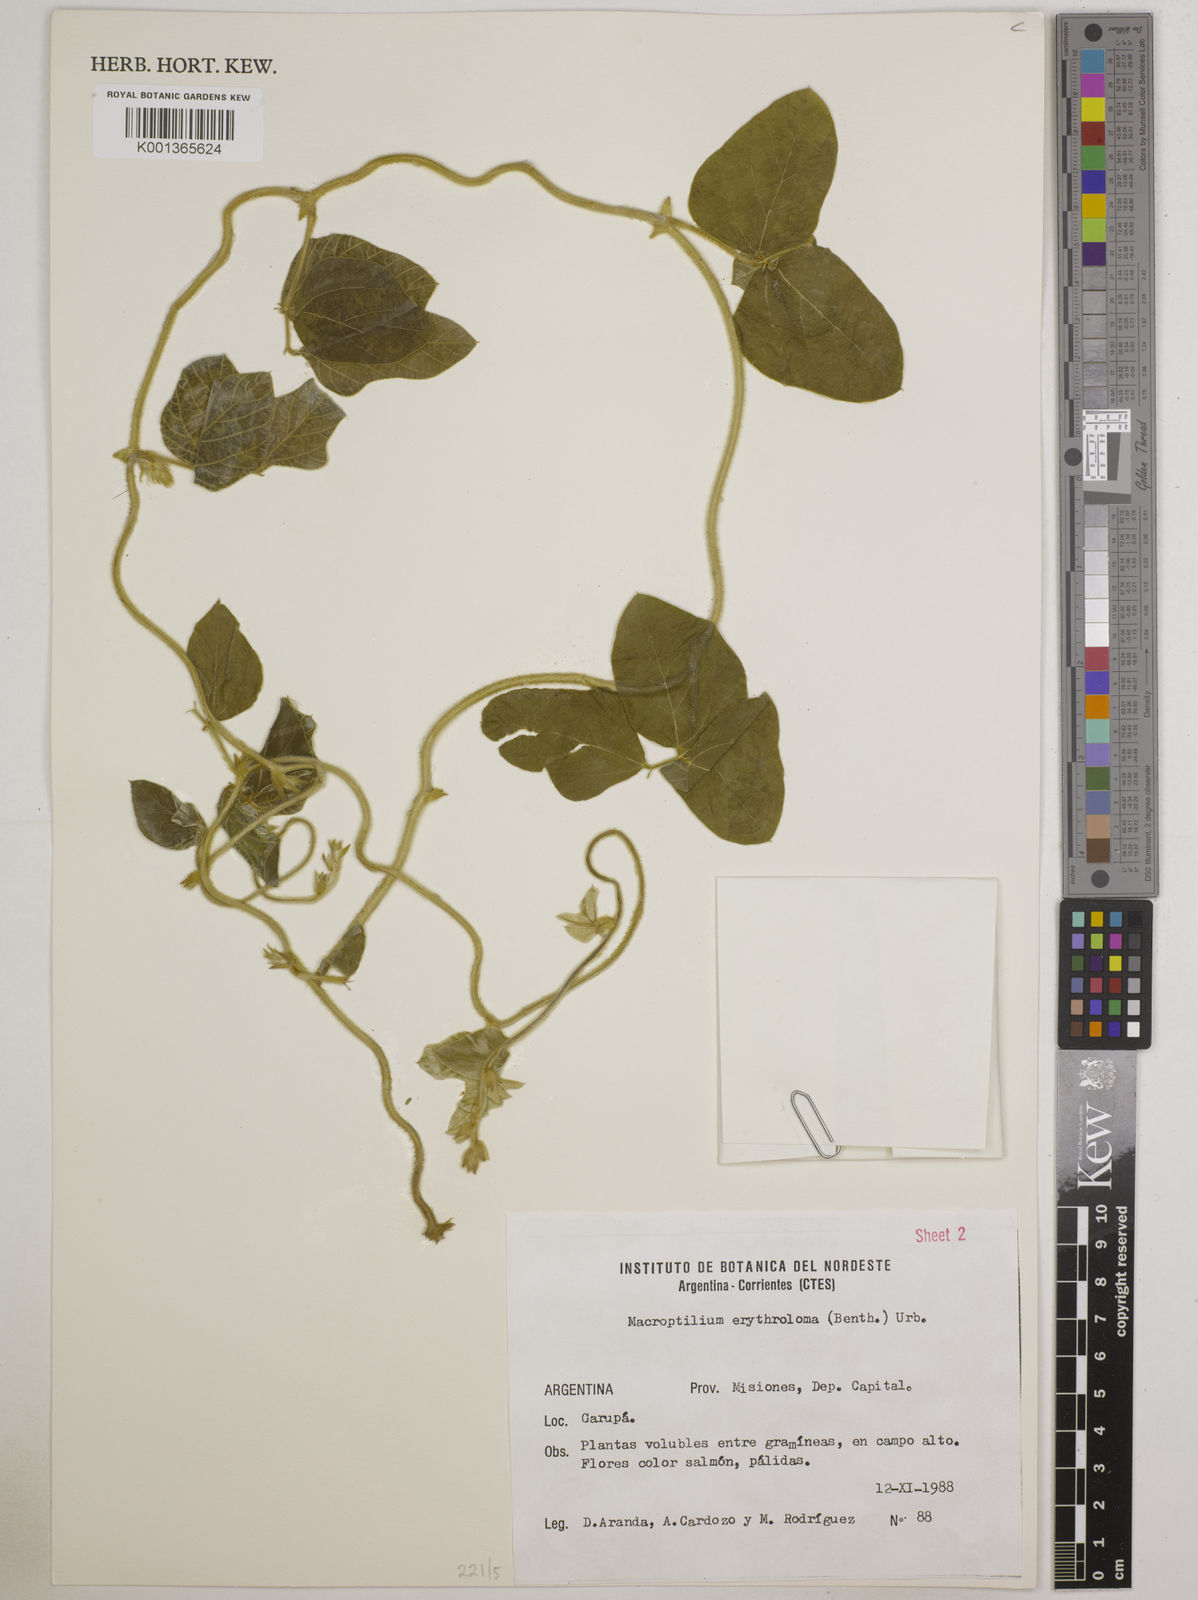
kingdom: Plantae
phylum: Tracheophyta
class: Magnoliopsida
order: Fabales
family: Fabaceae
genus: Macroptilium
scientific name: Macroptilium erythroloma
